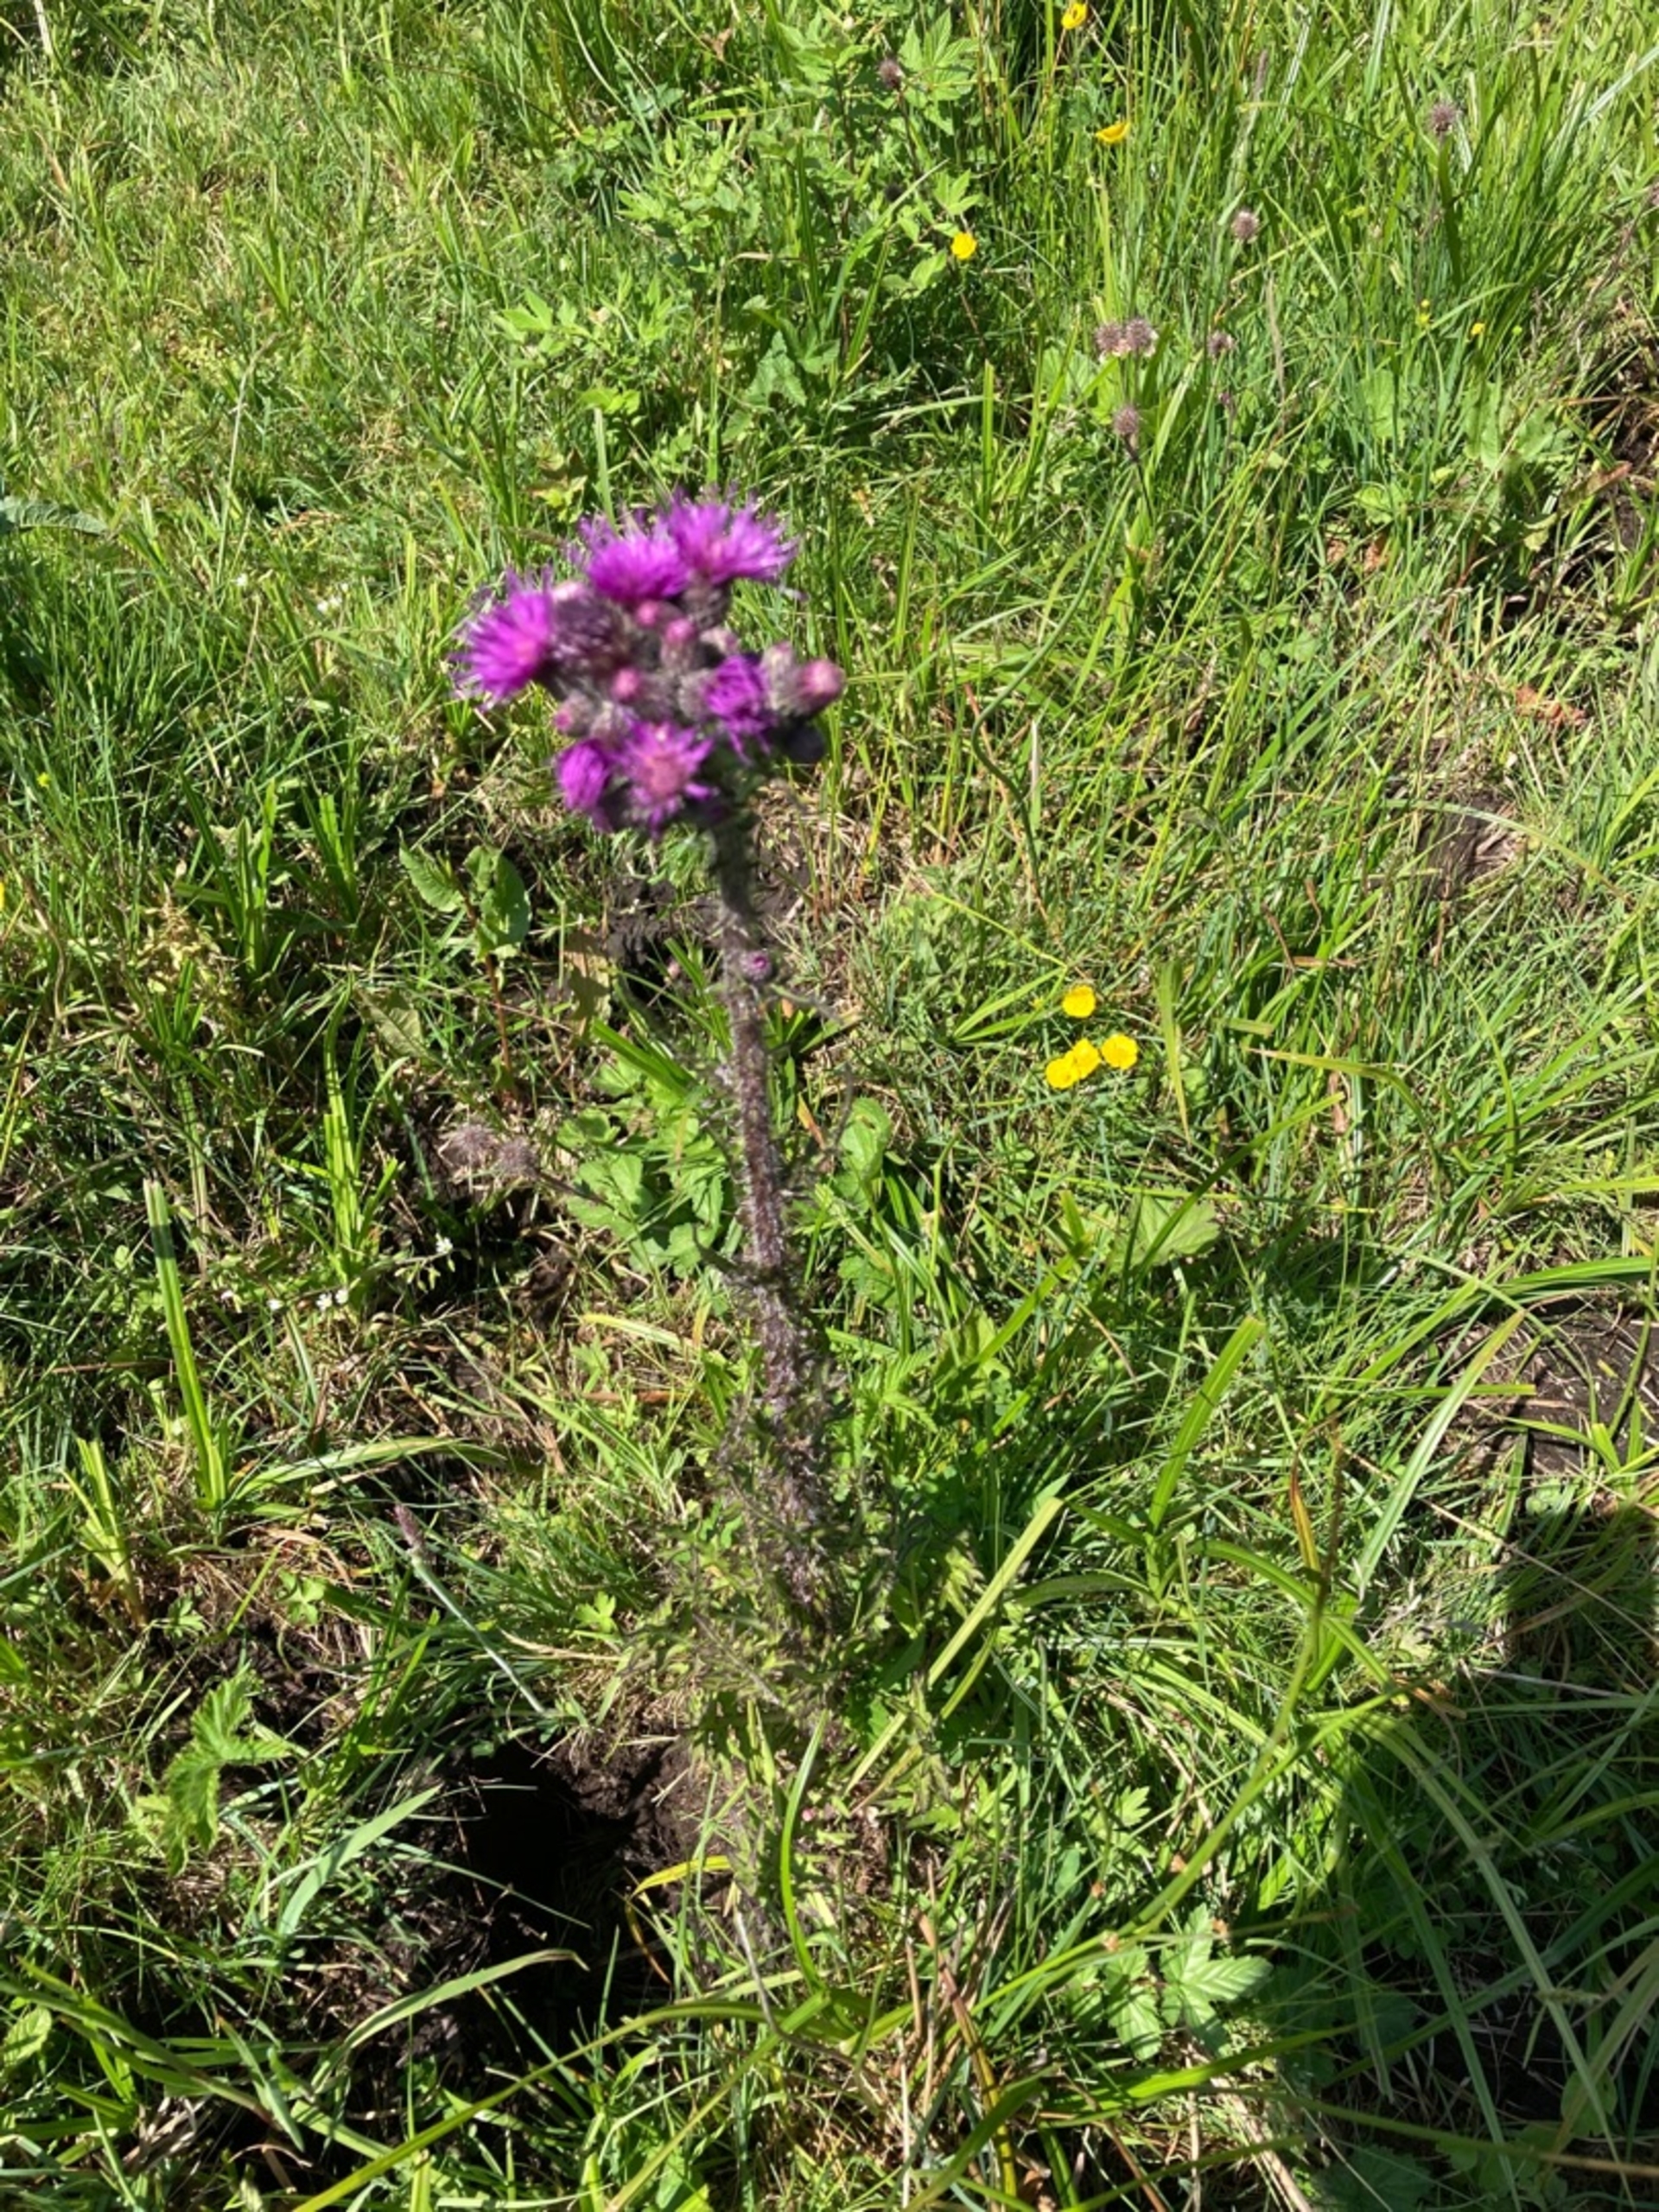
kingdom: Plantae
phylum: Tracheophyta
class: Magnoliopsida
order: Asterales
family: Asteraceae
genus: Cirsium
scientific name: Cirsium palustre
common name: Kær-tidsel
